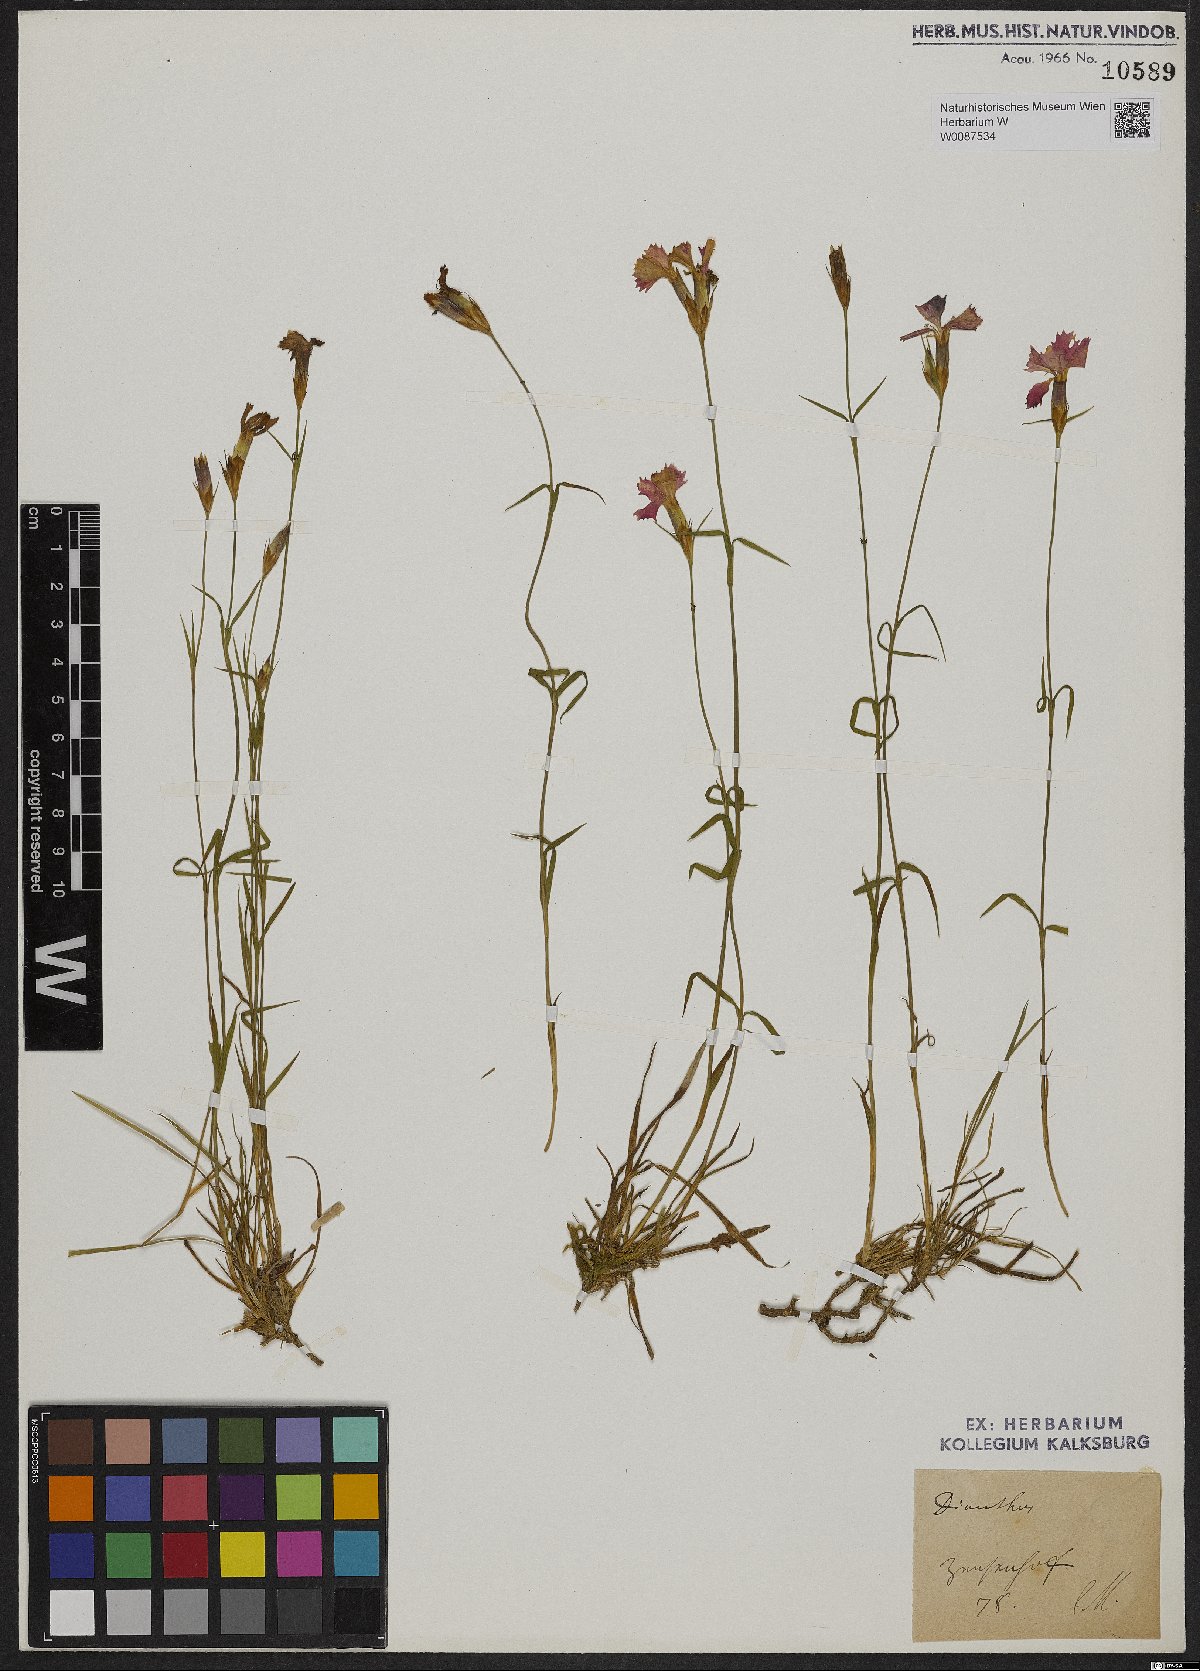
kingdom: Plantae
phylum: Tracheophyta
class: Magnoliopsida
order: Caryophyllales
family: Caryophyllaceae
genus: Dianthus
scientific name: Dianthus
